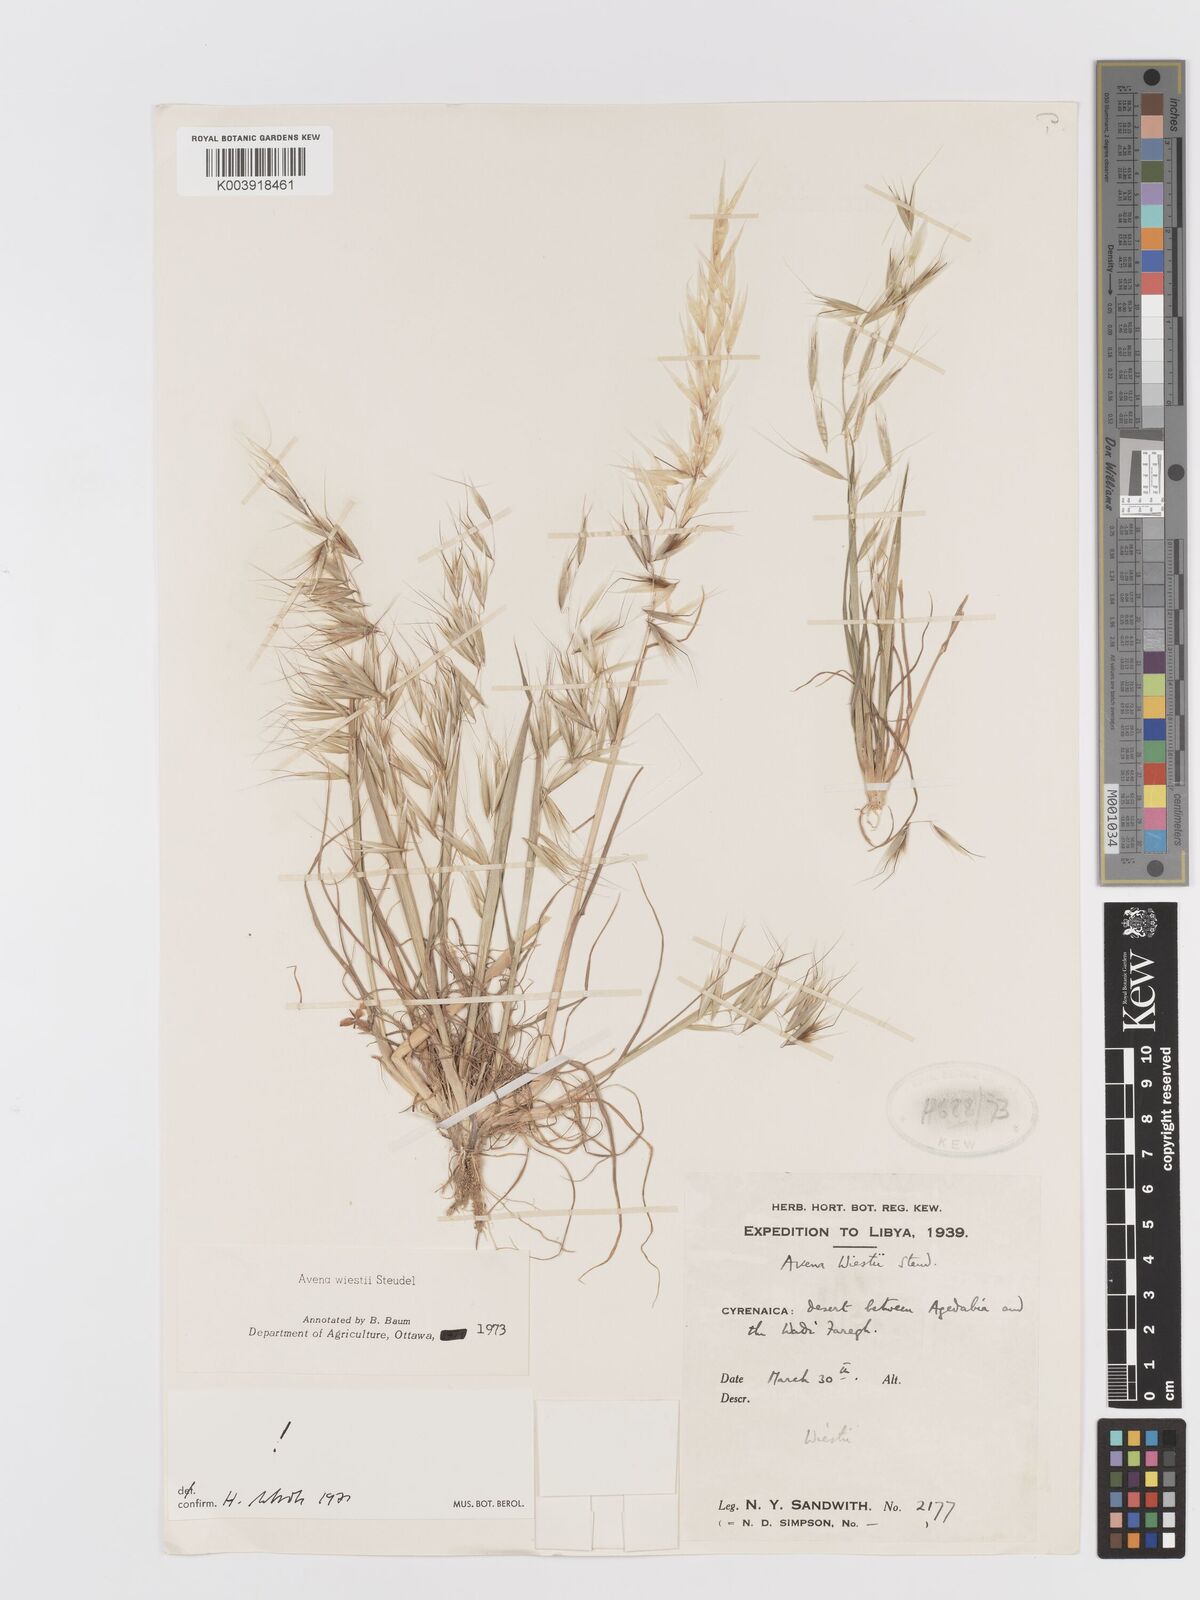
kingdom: Plantae
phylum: Tracheophyta
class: Liliopsida
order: Poales
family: Poaceae
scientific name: Poaceae
